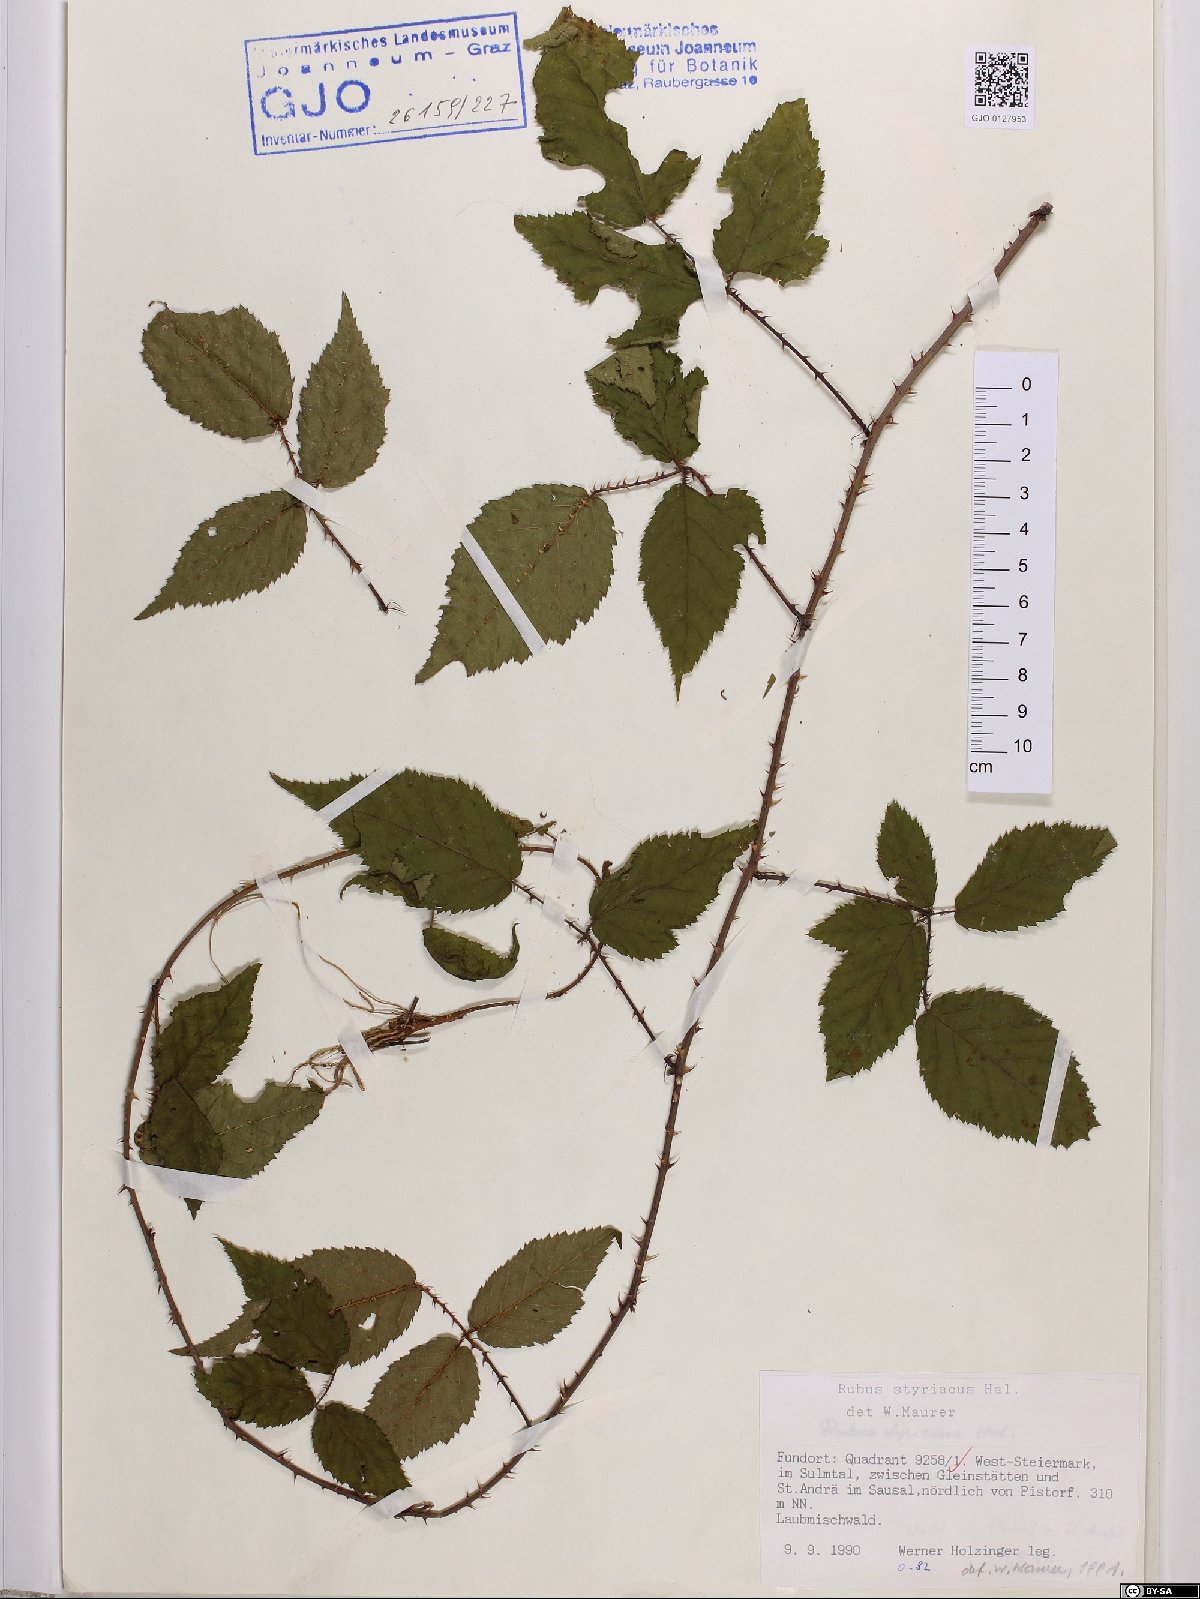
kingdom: Plantae
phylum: Tracheophyta
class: Magnoliopsida
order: Rosales
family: Rosaceae
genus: Rubus
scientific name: Rubus styriacus
